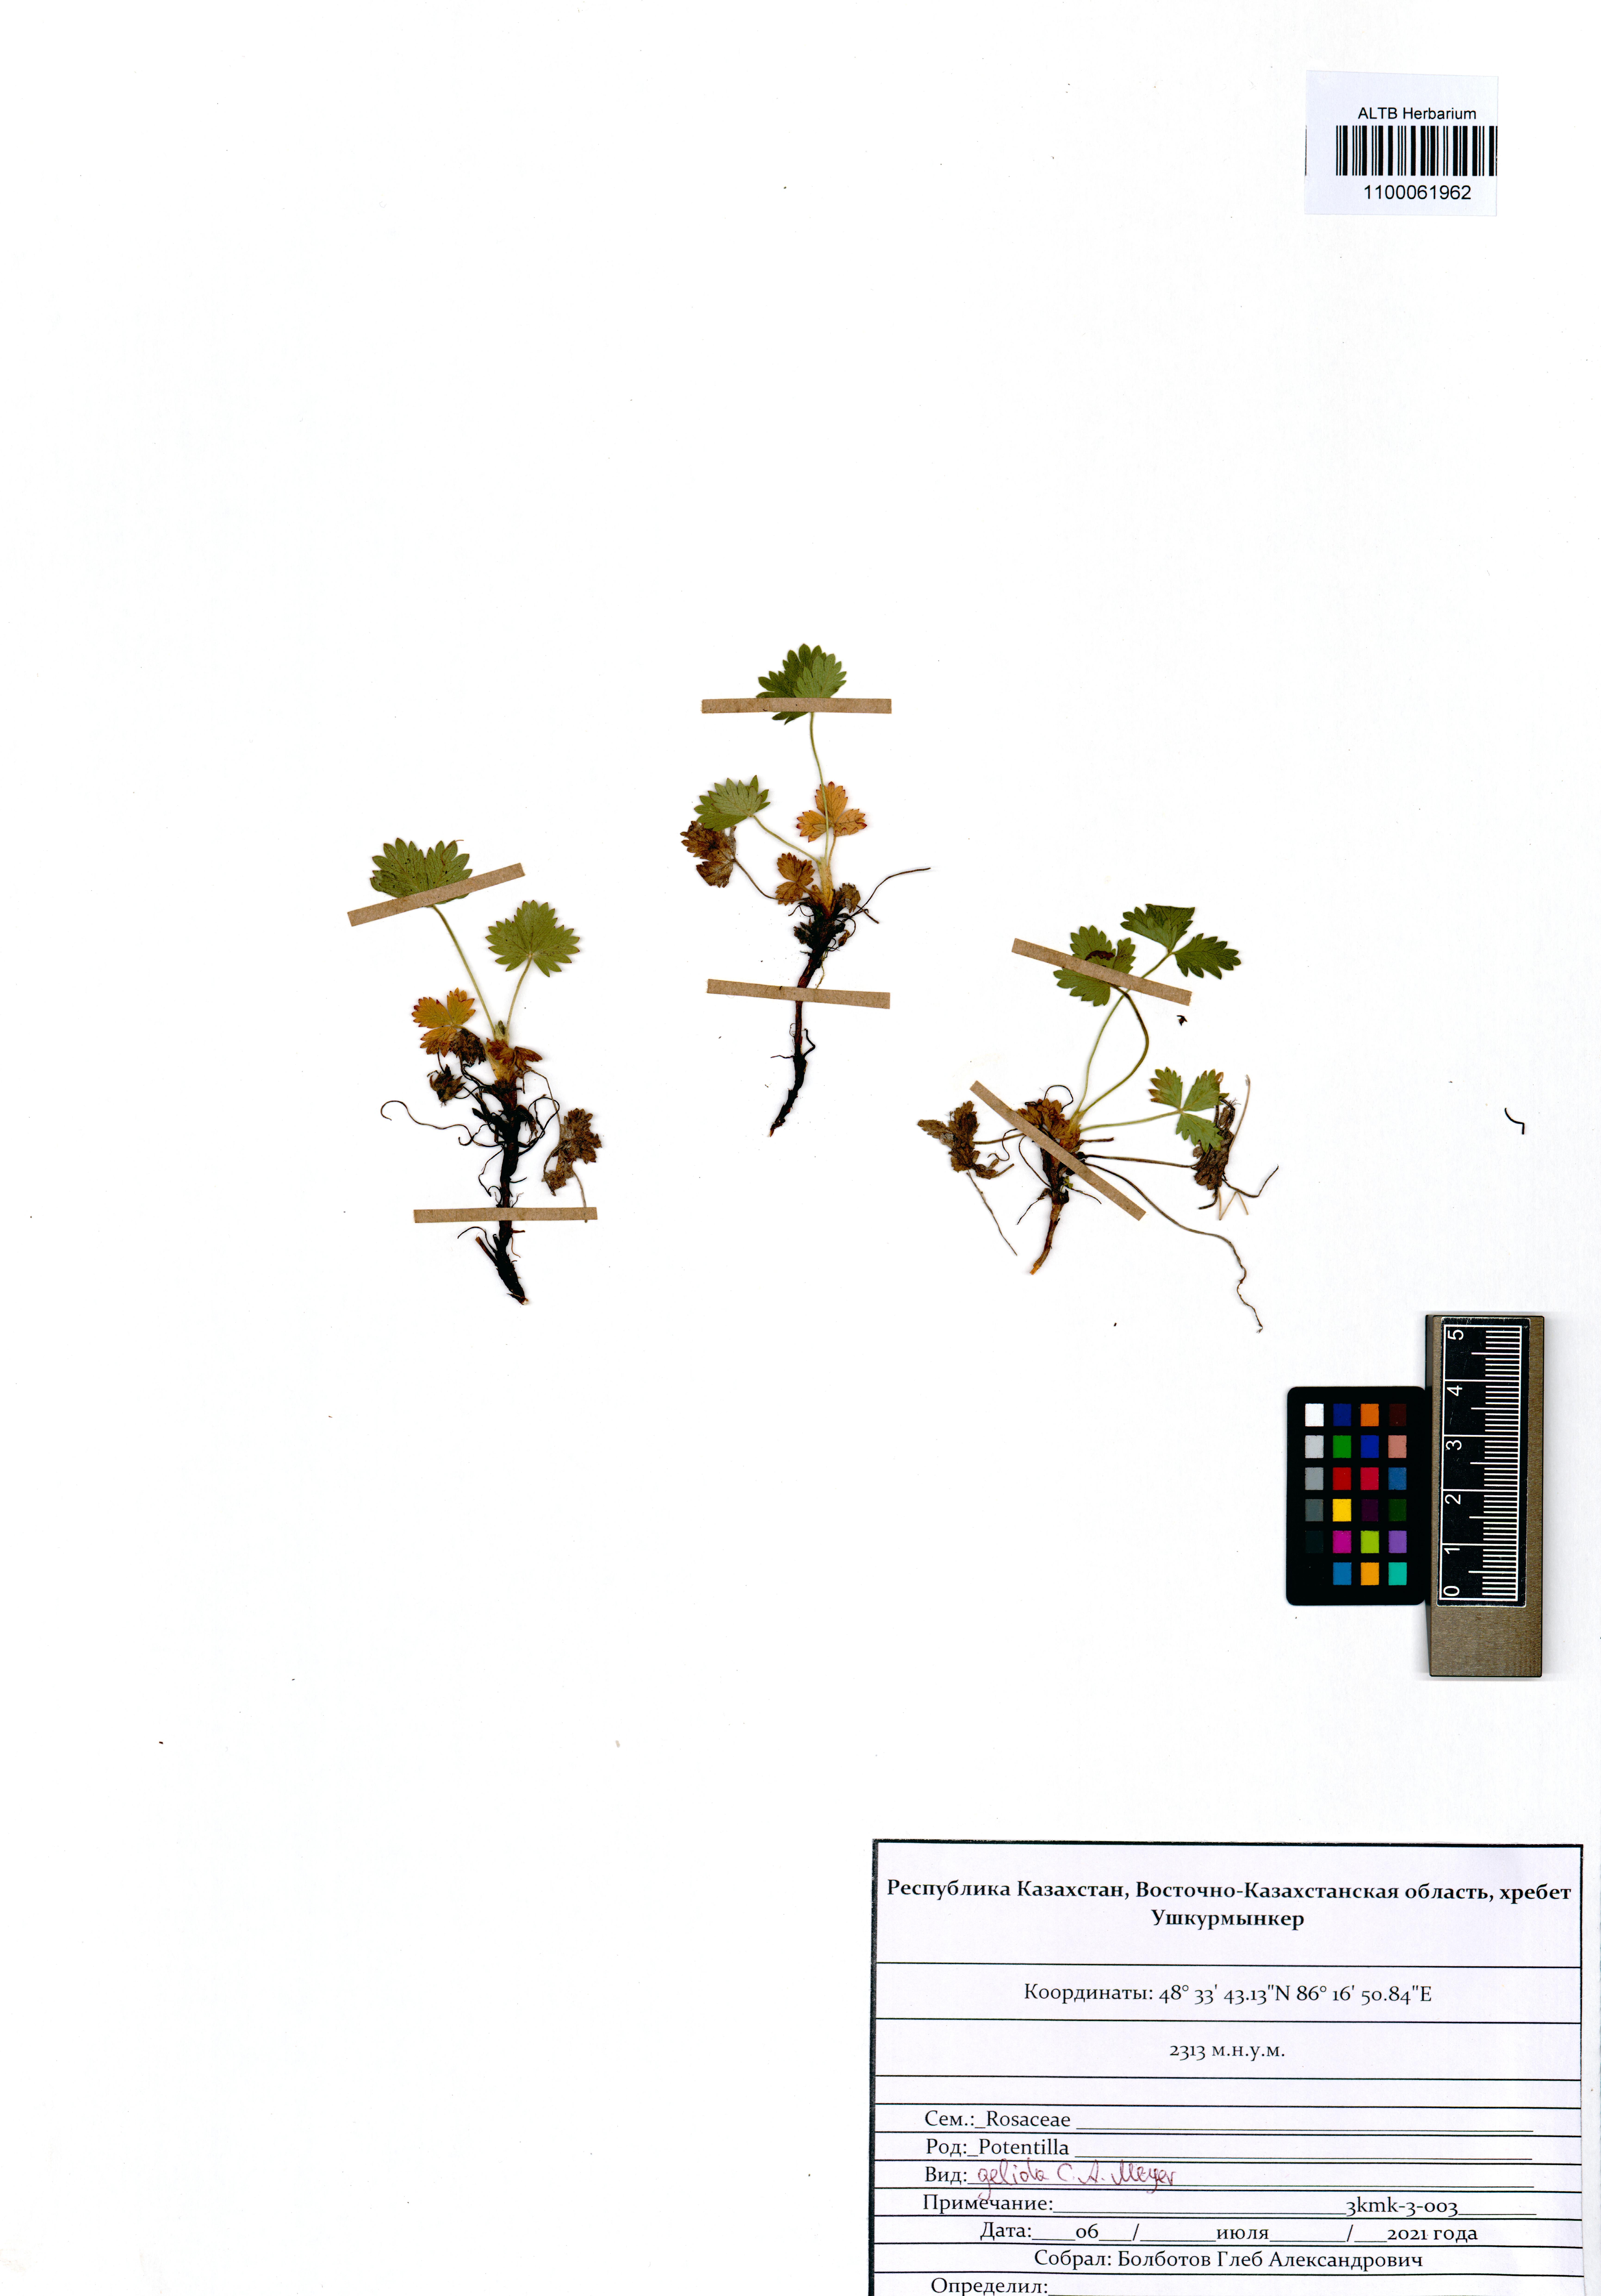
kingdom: Plantae
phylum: Tracheophyta
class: Magnoliopsida
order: Rosales
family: Rosaceae
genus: Potentilla
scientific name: Potentilla crantzii
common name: Alpine cinquefoil
